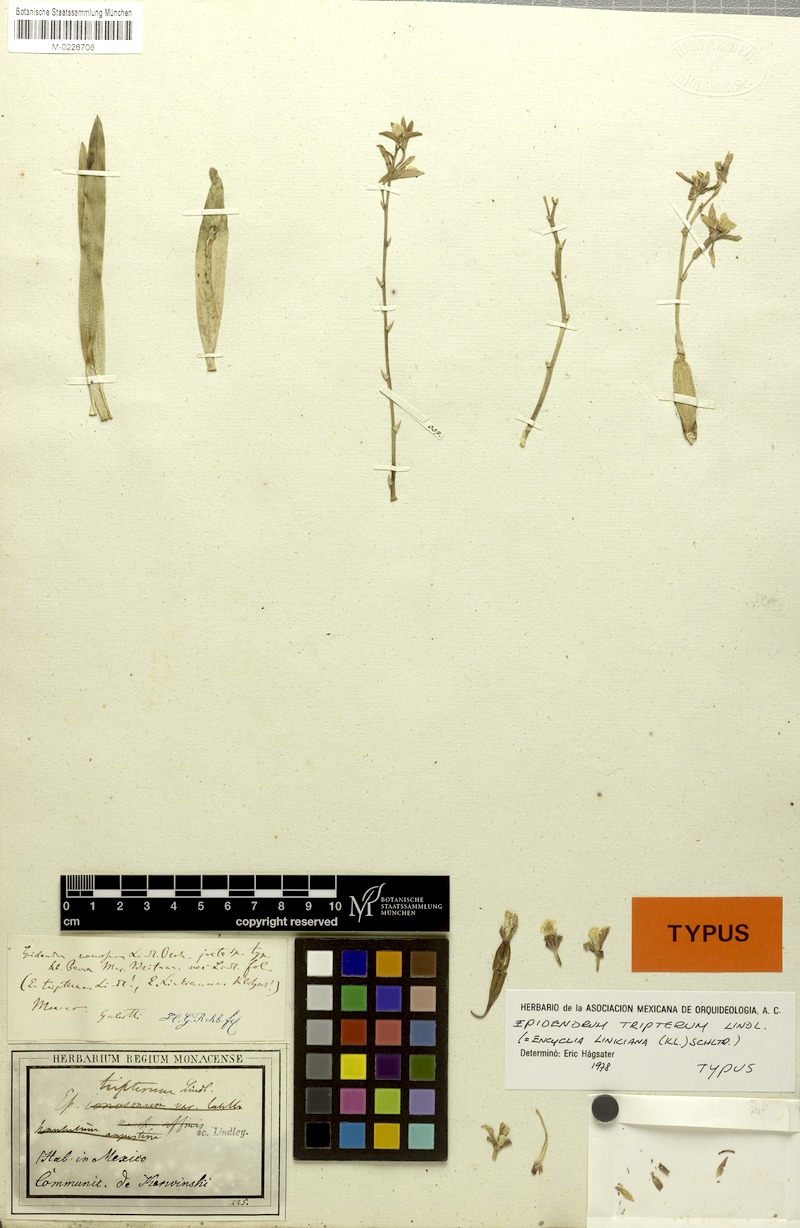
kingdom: Plantae
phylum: Tracheophyta
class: Liliopsida
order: Asparagales
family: Orchidaceae
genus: Prosthechea
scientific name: Prosthechea semiaperta
